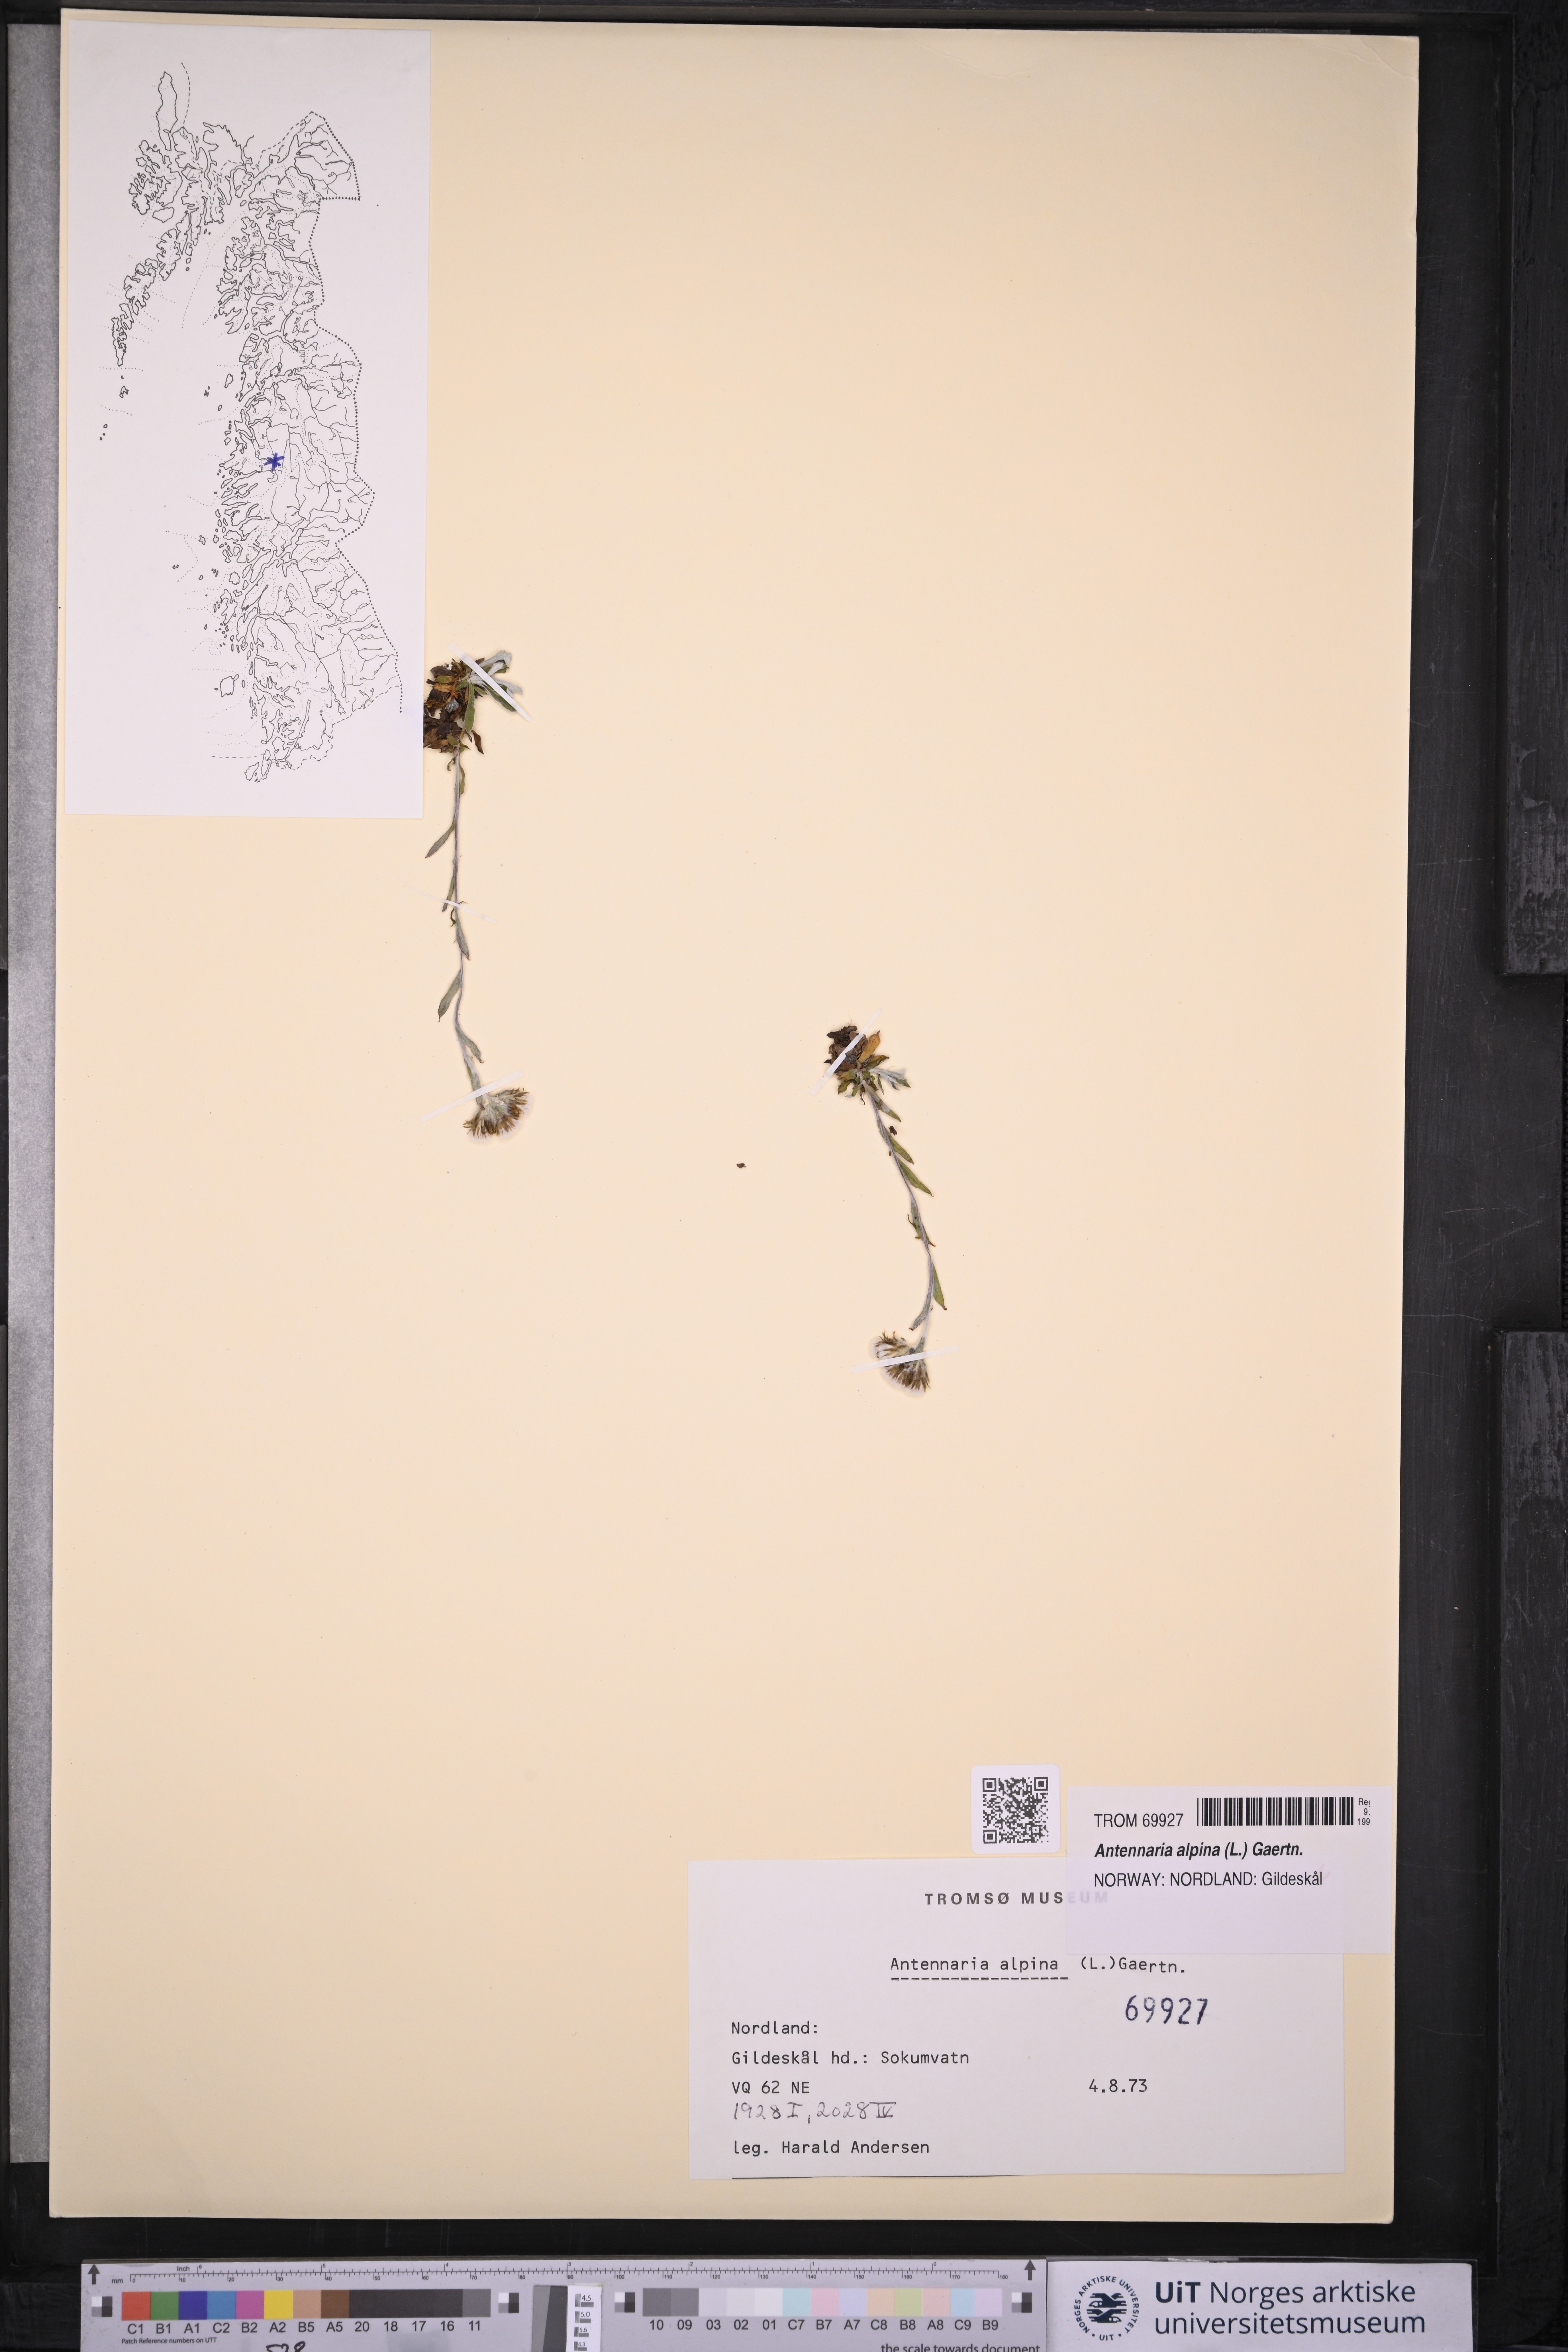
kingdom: Plantae
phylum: Tracheophyta
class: Magnoliopsida
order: Asterales
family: Asteraceae
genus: Antennaria
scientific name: Antennaria alpina
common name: Alpine pussytoes
